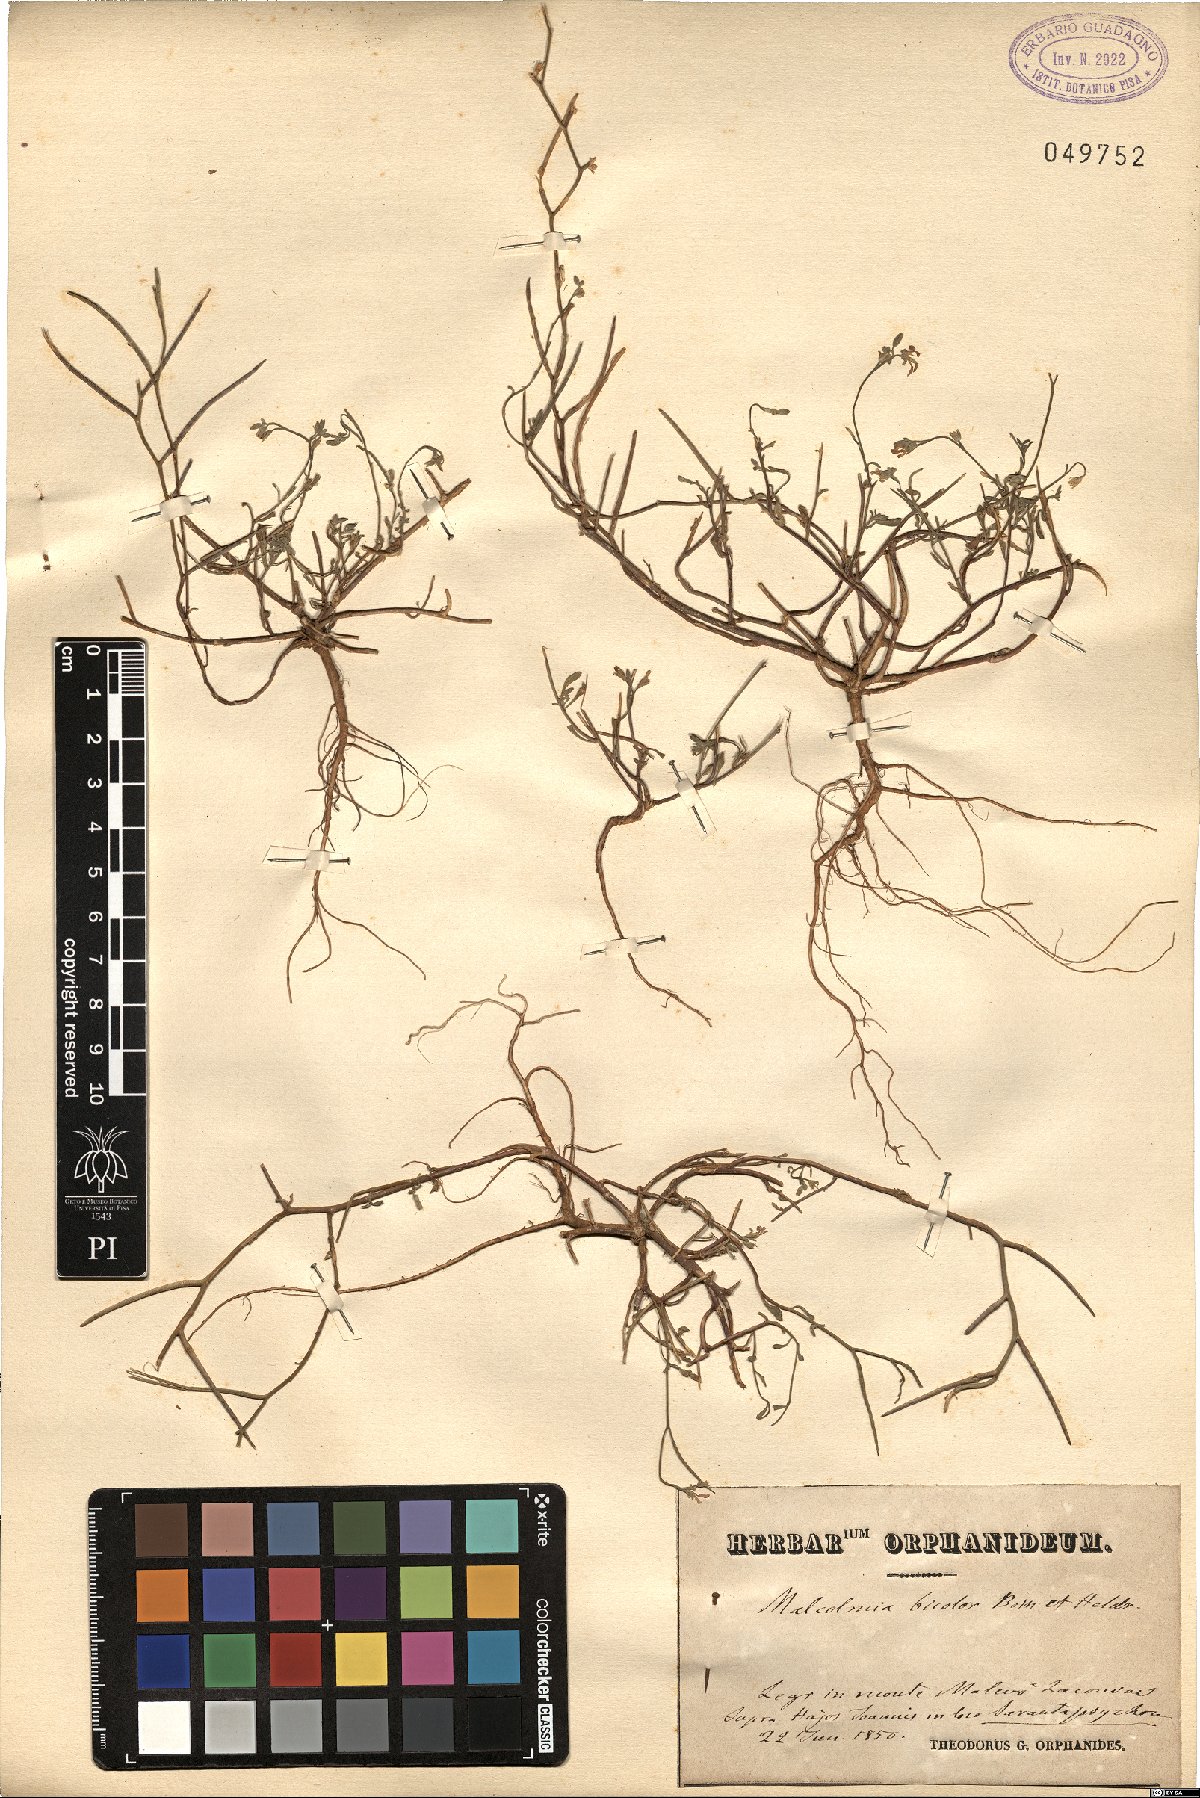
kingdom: Plantae
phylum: Tracheophyta
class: Magnoliopsida
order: Brassicales
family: Brassicaceae
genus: Malcolmia
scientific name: Malcolmia graeca
